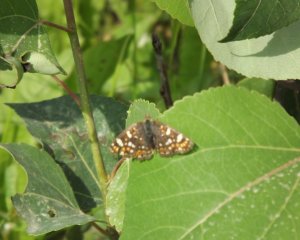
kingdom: Animalia
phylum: Arthropoda
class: Insecta
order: Lepidoptera
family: Nymphalidae
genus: Phyciodes
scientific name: Phyciodes tharos
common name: Field Crescent
